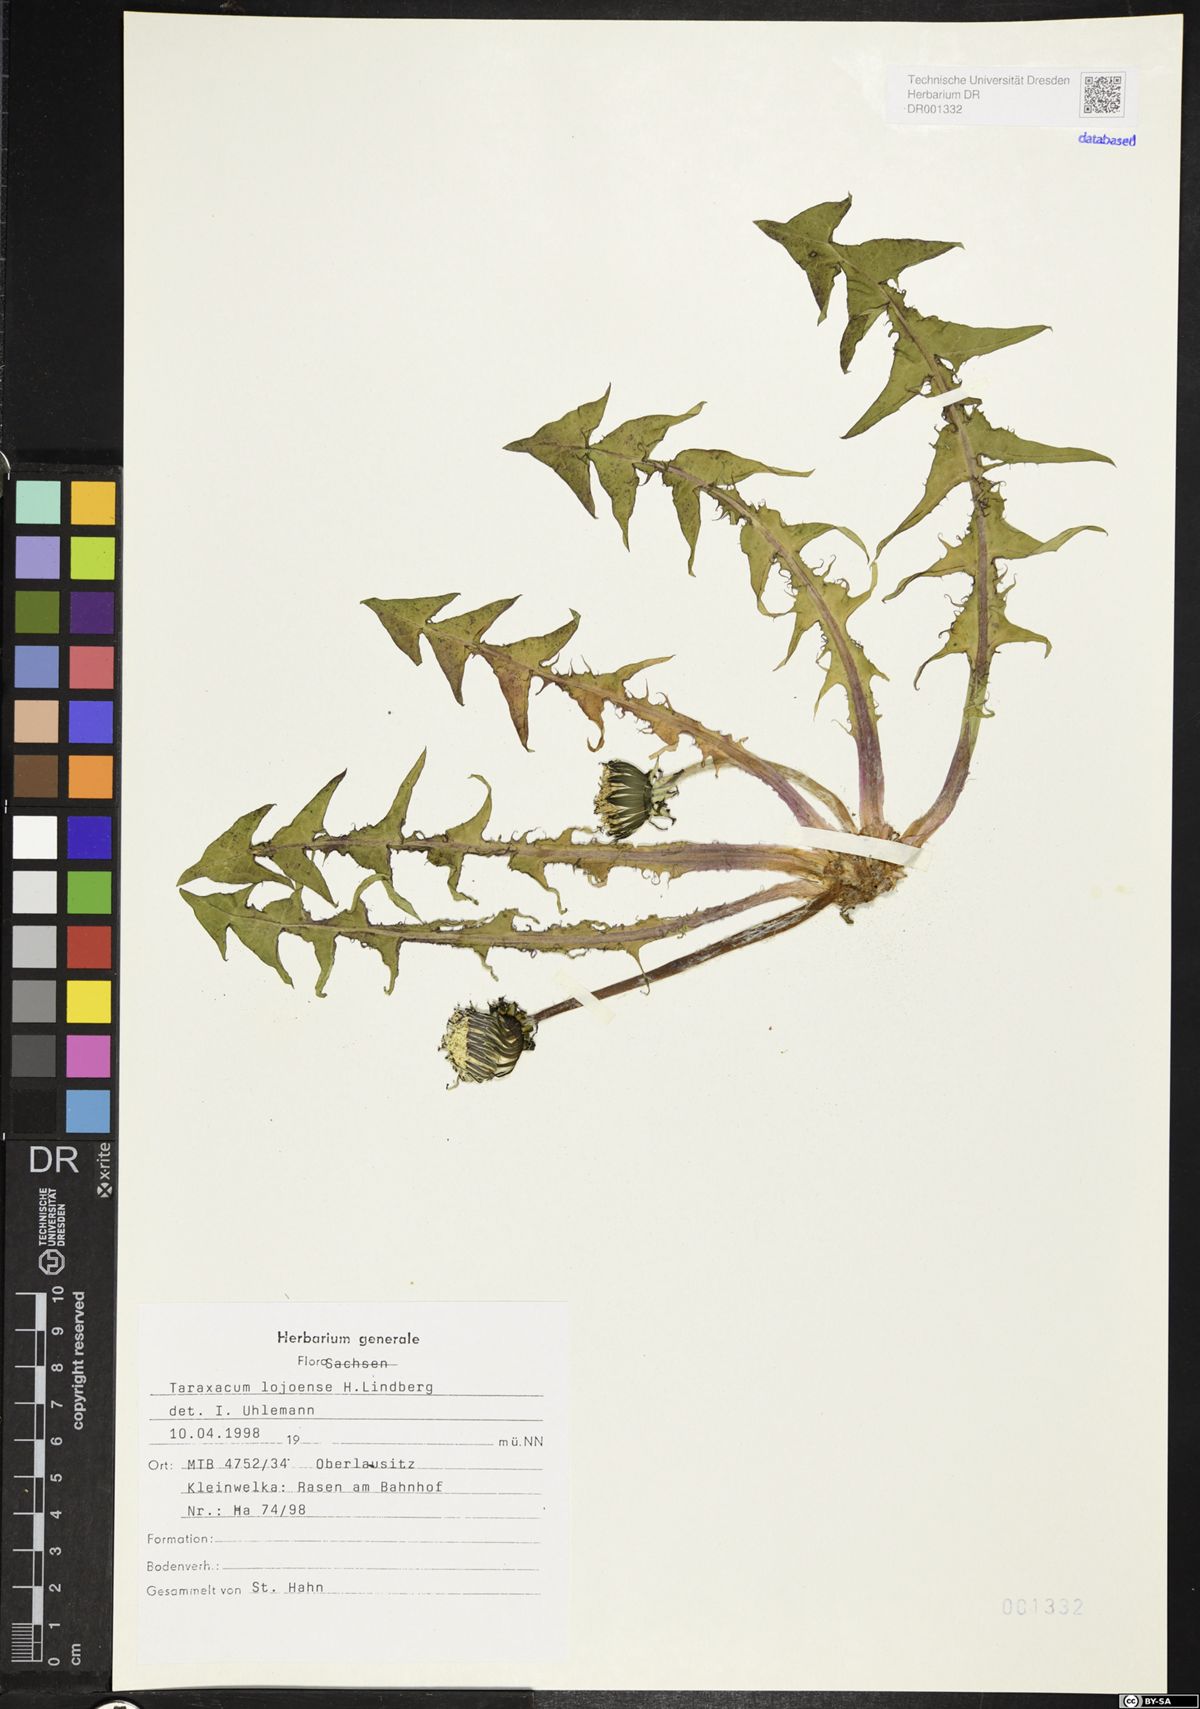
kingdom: Plantae
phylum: Tracheophyta
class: Magnoliopsida
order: Asterales
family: Asteraceae
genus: Taraxacum
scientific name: Taraxacum debrayi
